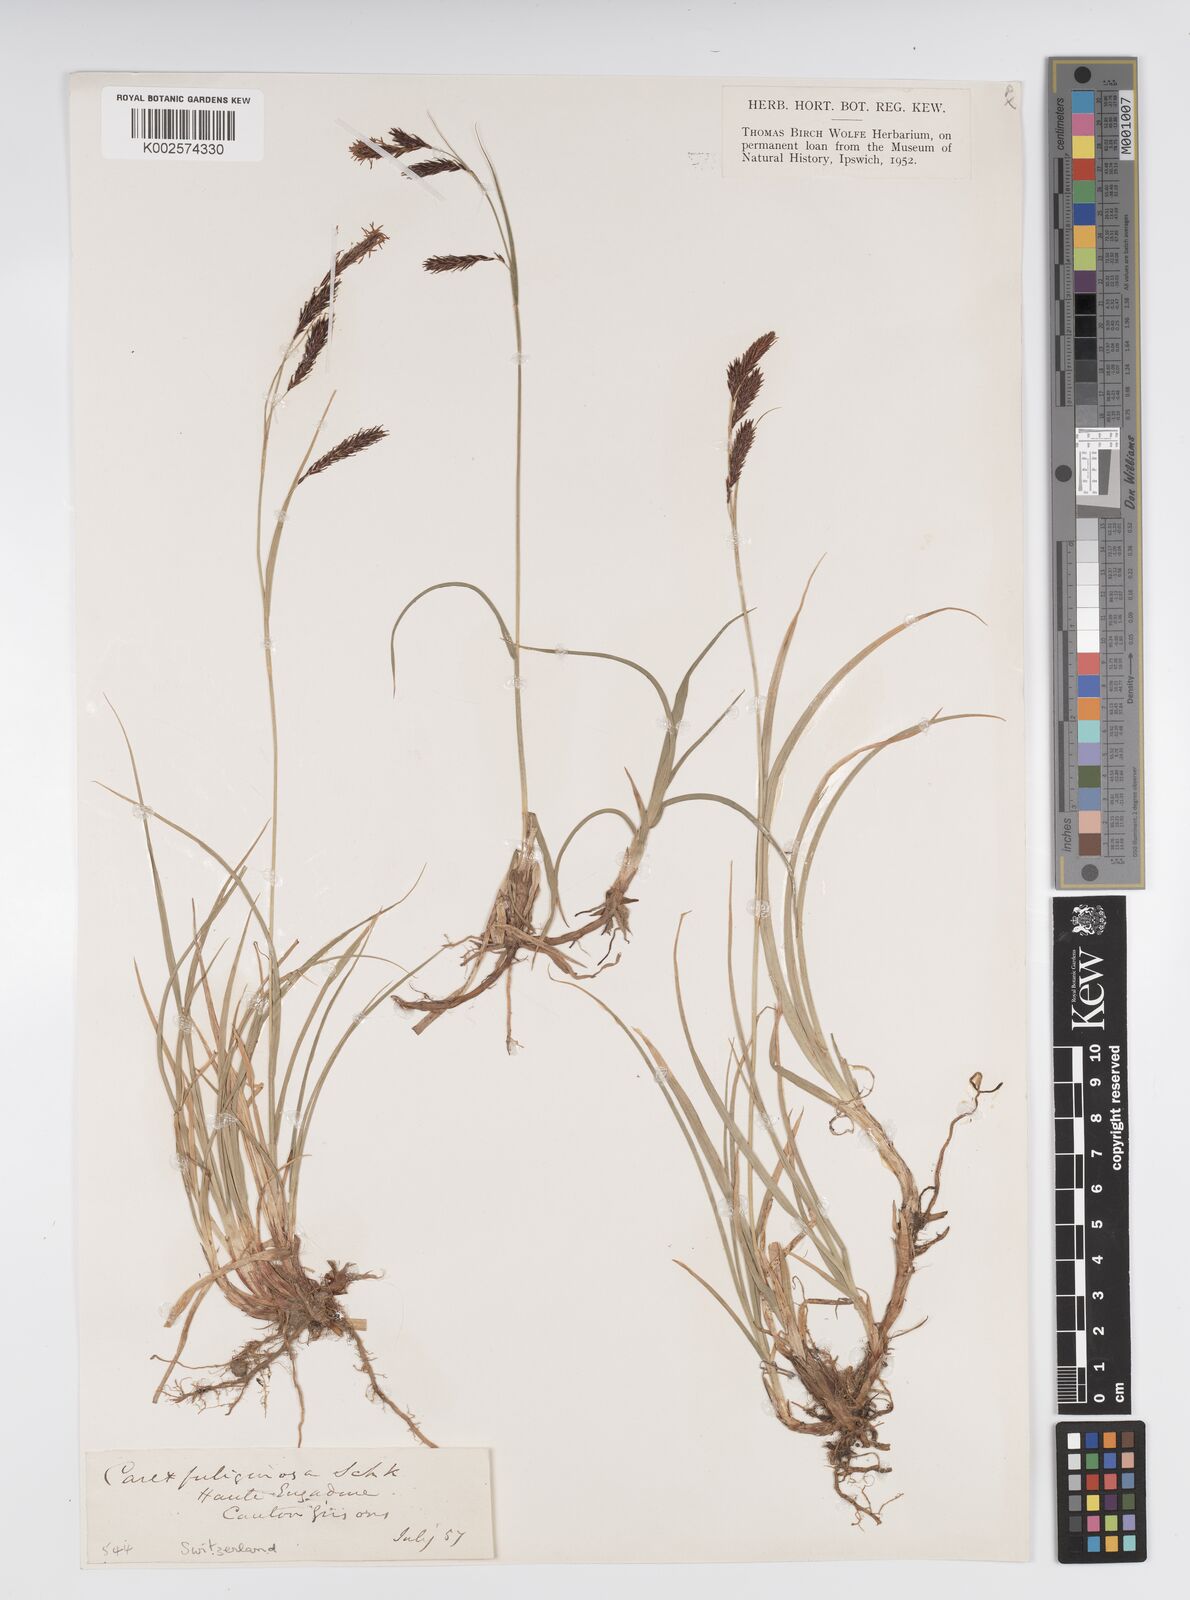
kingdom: Plantae
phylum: Tracheophyta
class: Liliopsida
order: Poales
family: Cyperaceae
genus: Carex
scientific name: Carex fuliginosa
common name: Few-flowered sedge
